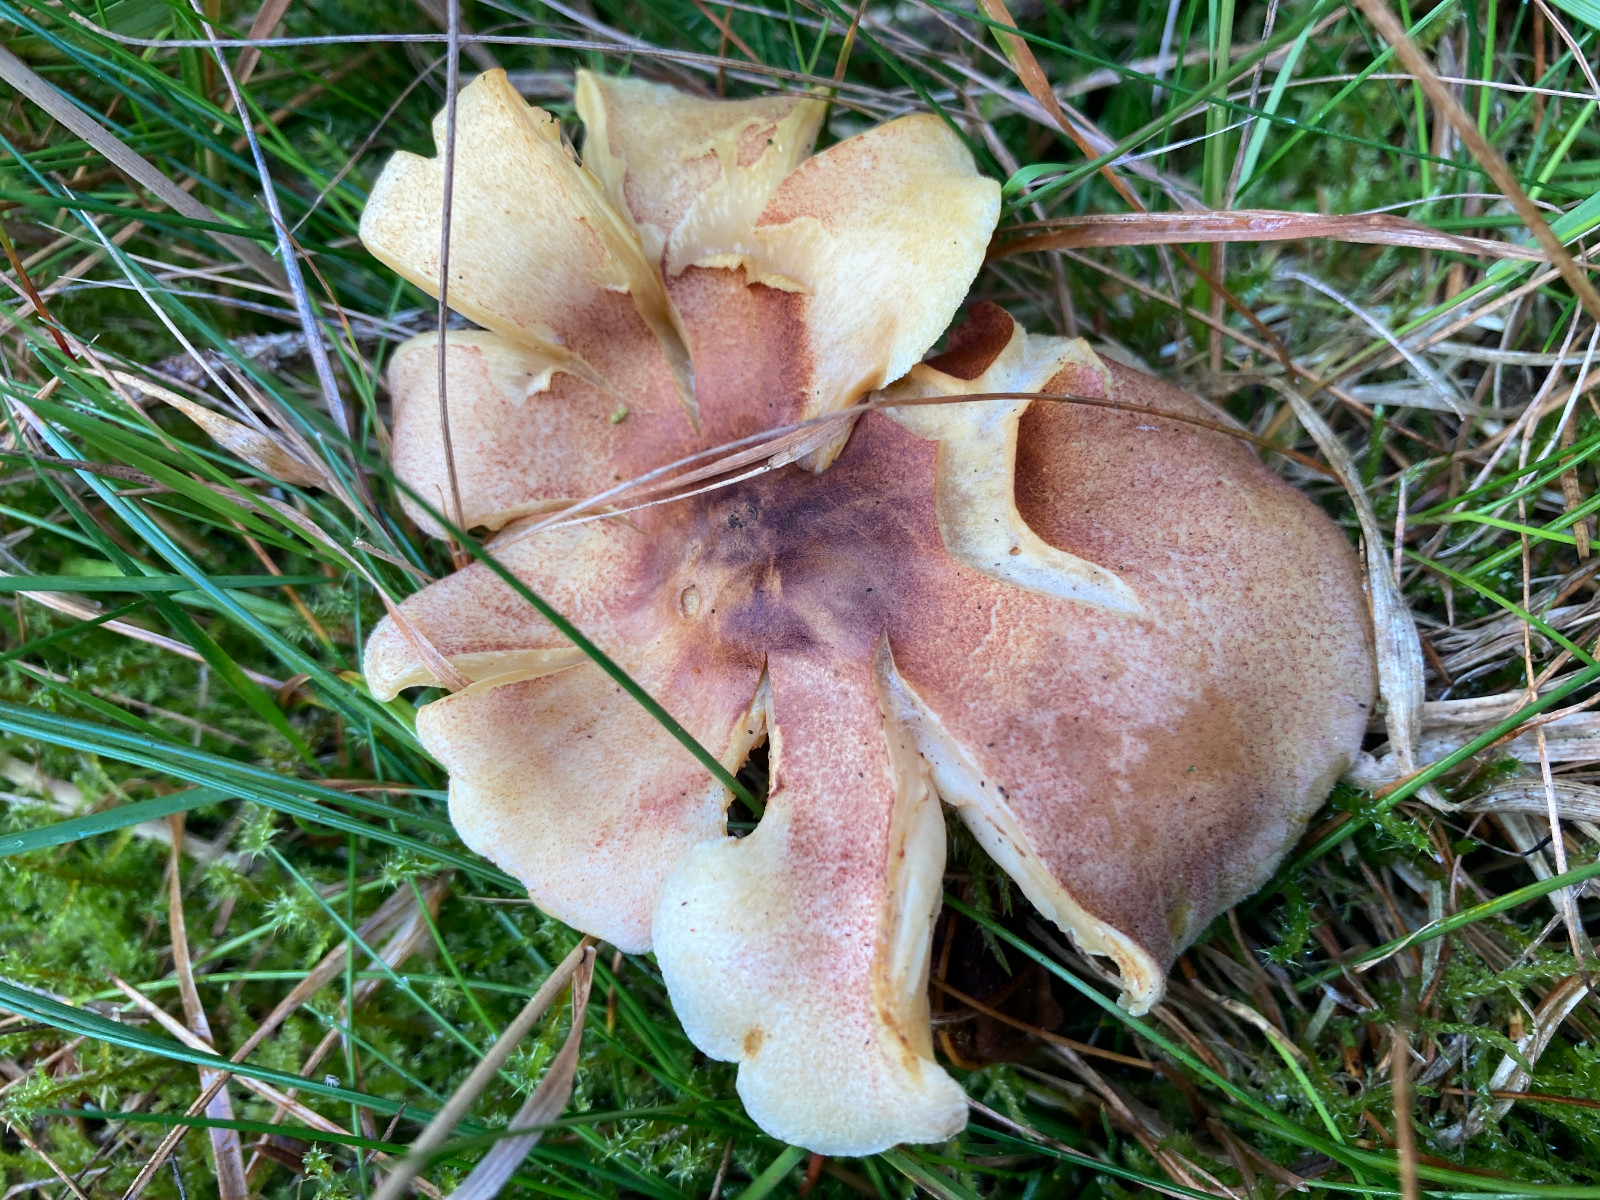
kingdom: Fungi
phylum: Basidiomycota
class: Agaricomycetes
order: Agaricales
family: Tricholomataceae
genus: Tricholomopsis
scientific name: Tricholomopsis rutilans
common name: purpur-væbnerhat
